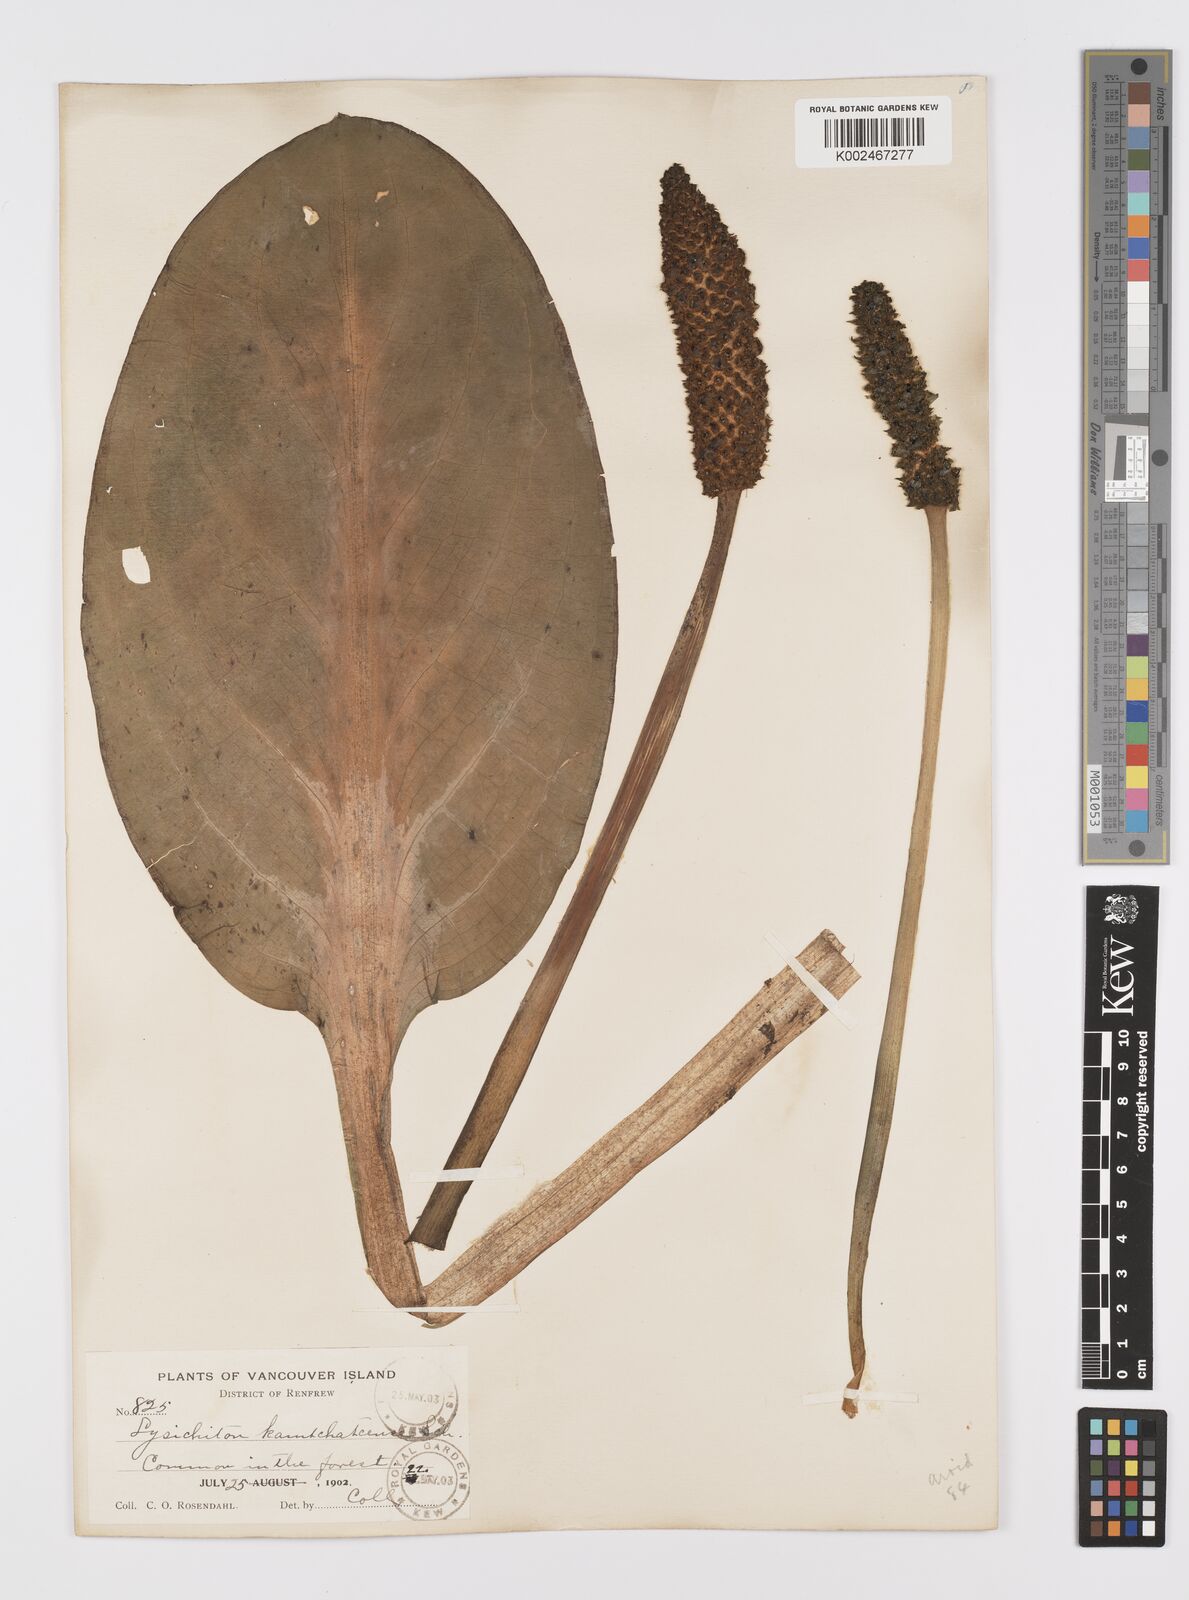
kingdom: Plantae
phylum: Tracheophyta
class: Liliopsida
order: Alismatales
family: Araceae
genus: Lysichiton
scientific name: Lysichiton americanus
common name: American skunk cabbage
